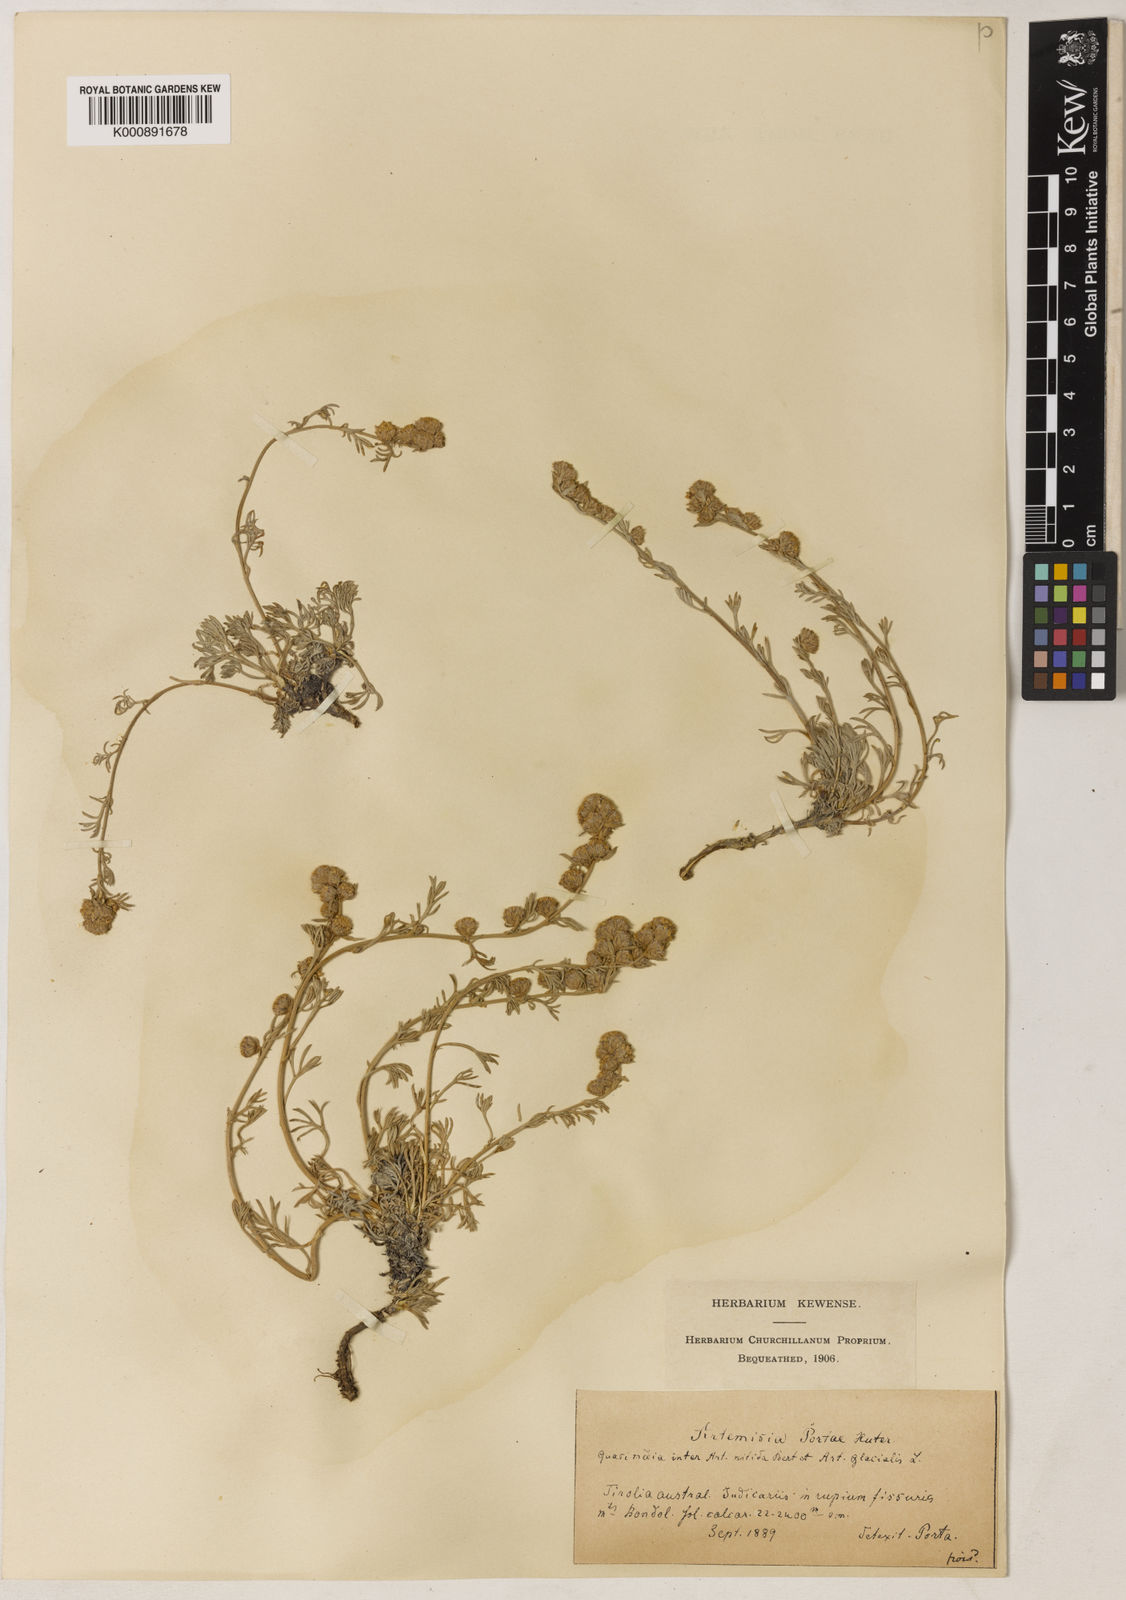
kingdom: Plantae
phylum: Tracheophyta
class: Magnoliopsida
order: Asterales
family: Asteraceae
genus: Artemisia
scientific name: Artemisia nitida
